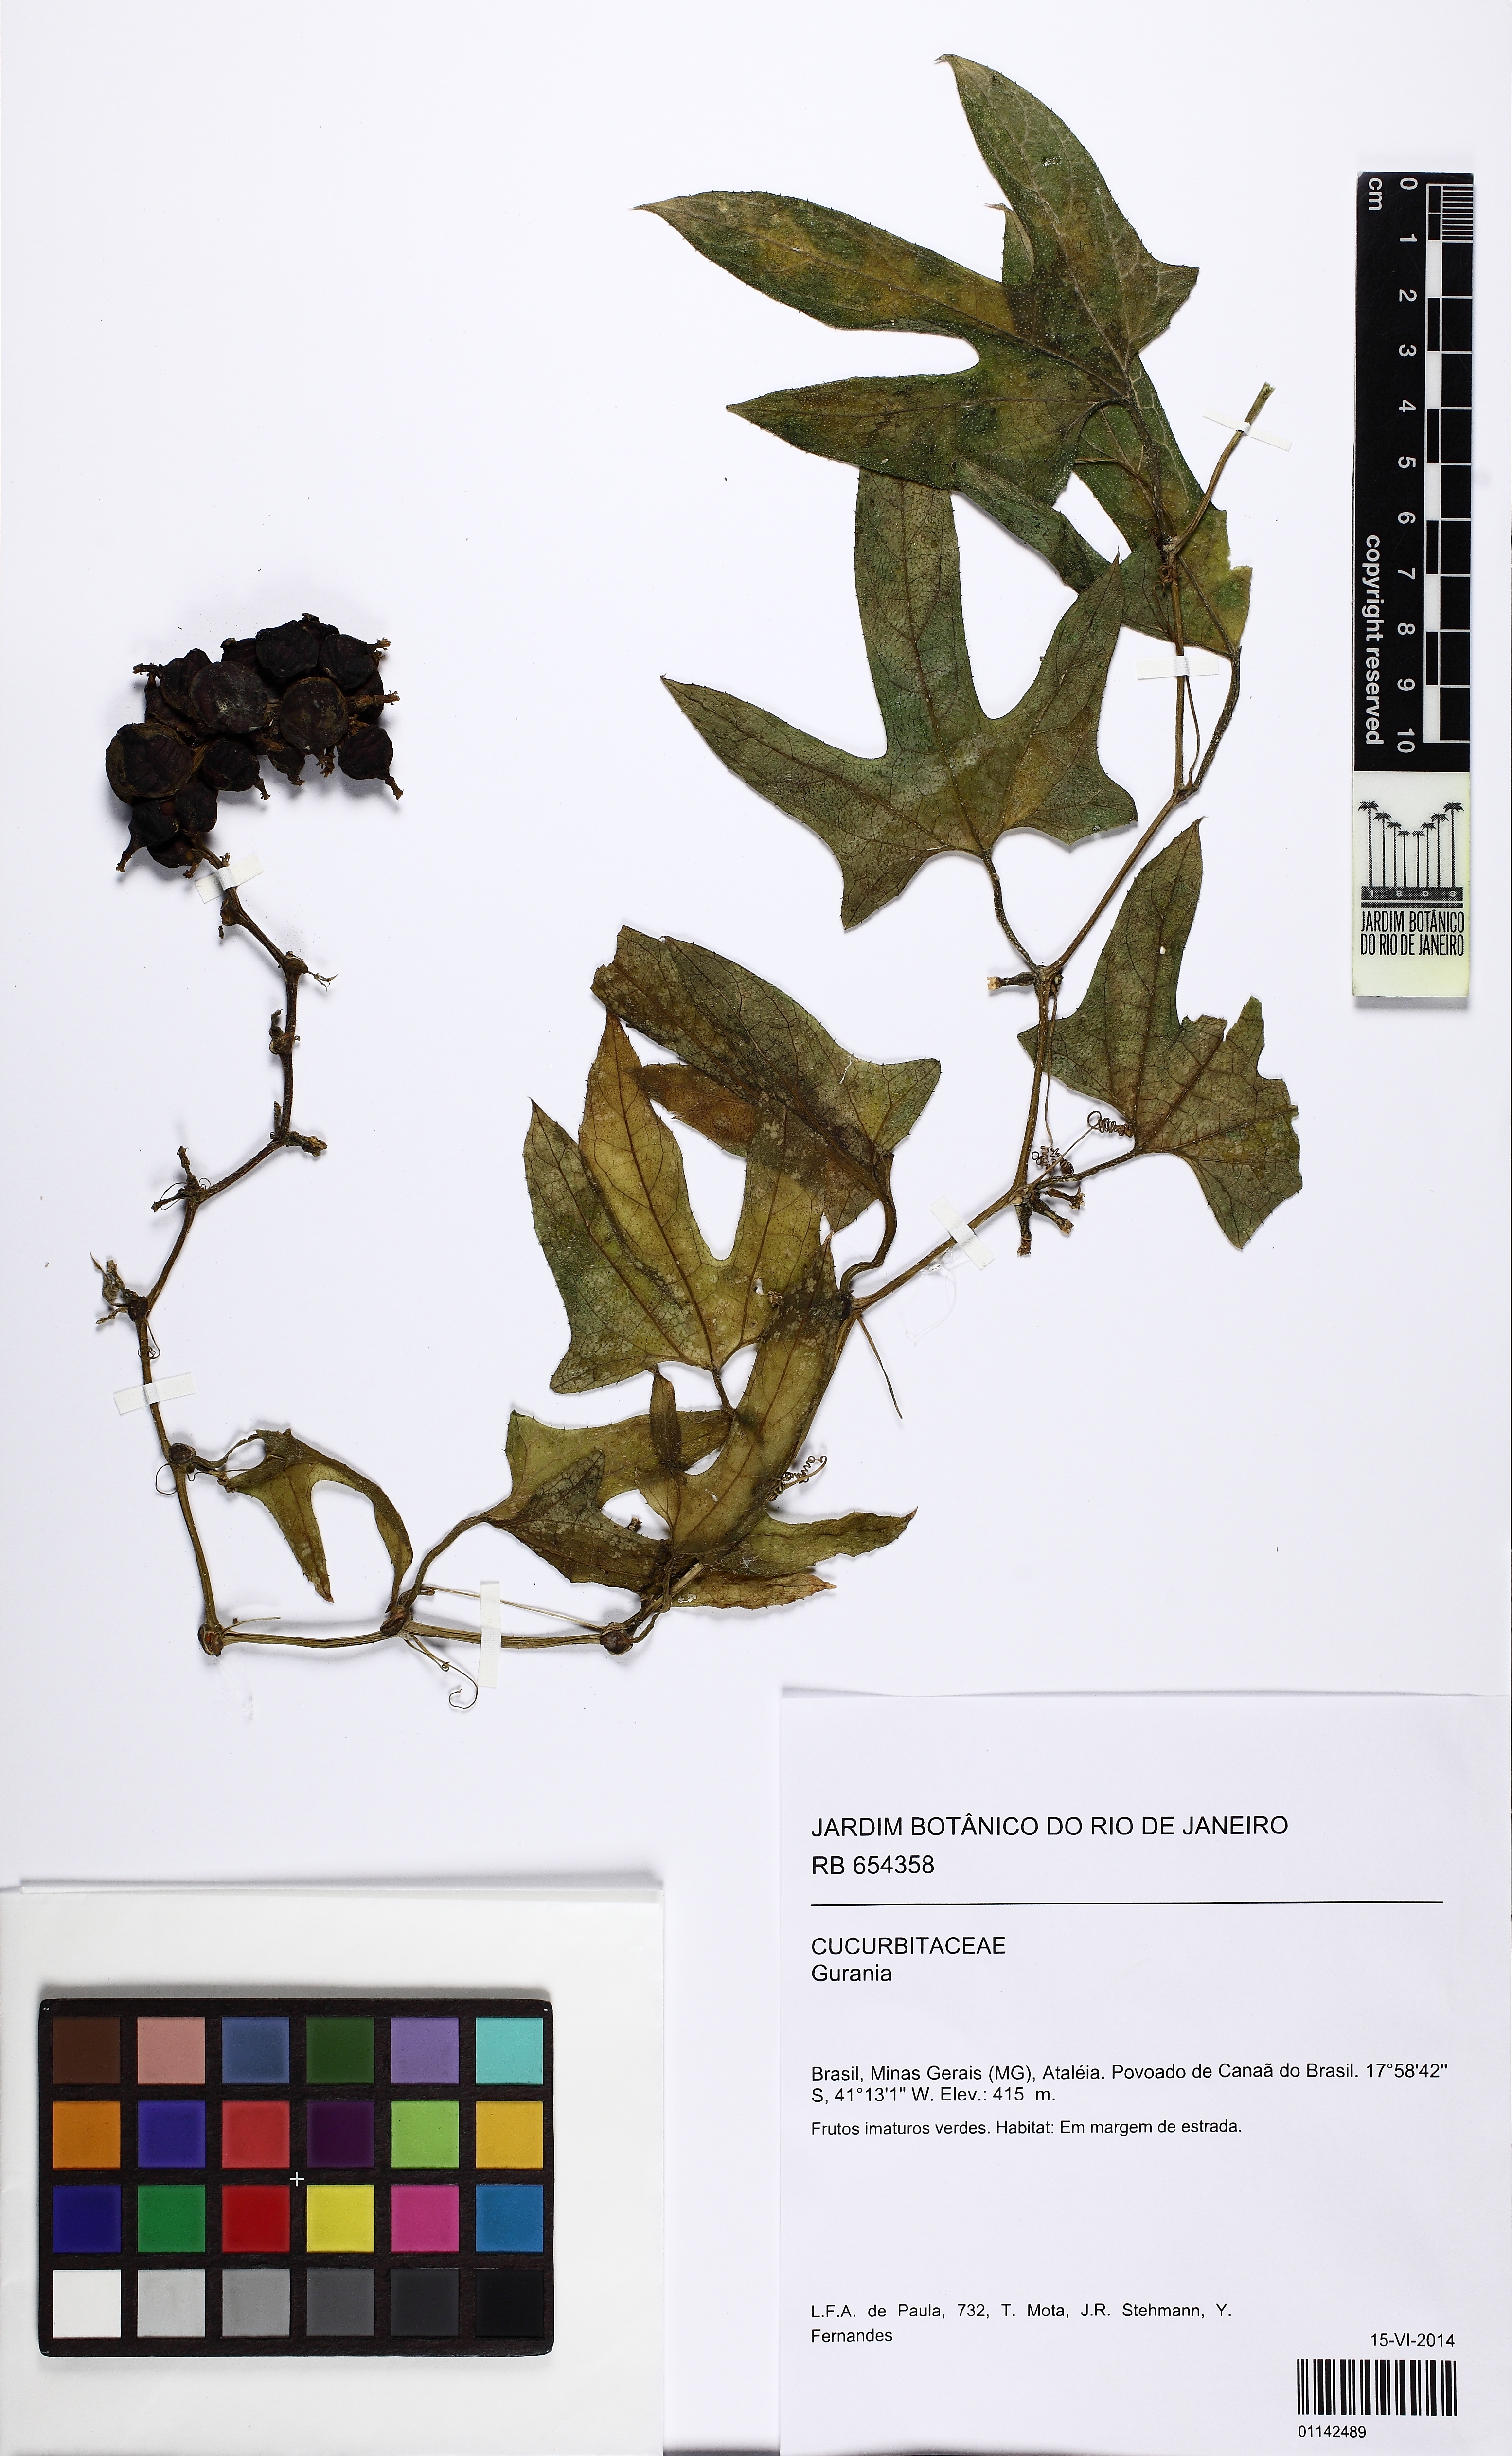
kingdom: Plantae
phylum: Tracheophyta
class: Magnoliopsida
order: Cucurbitales
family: Cucurbitaceae
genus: Gurania
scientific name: Gurania
